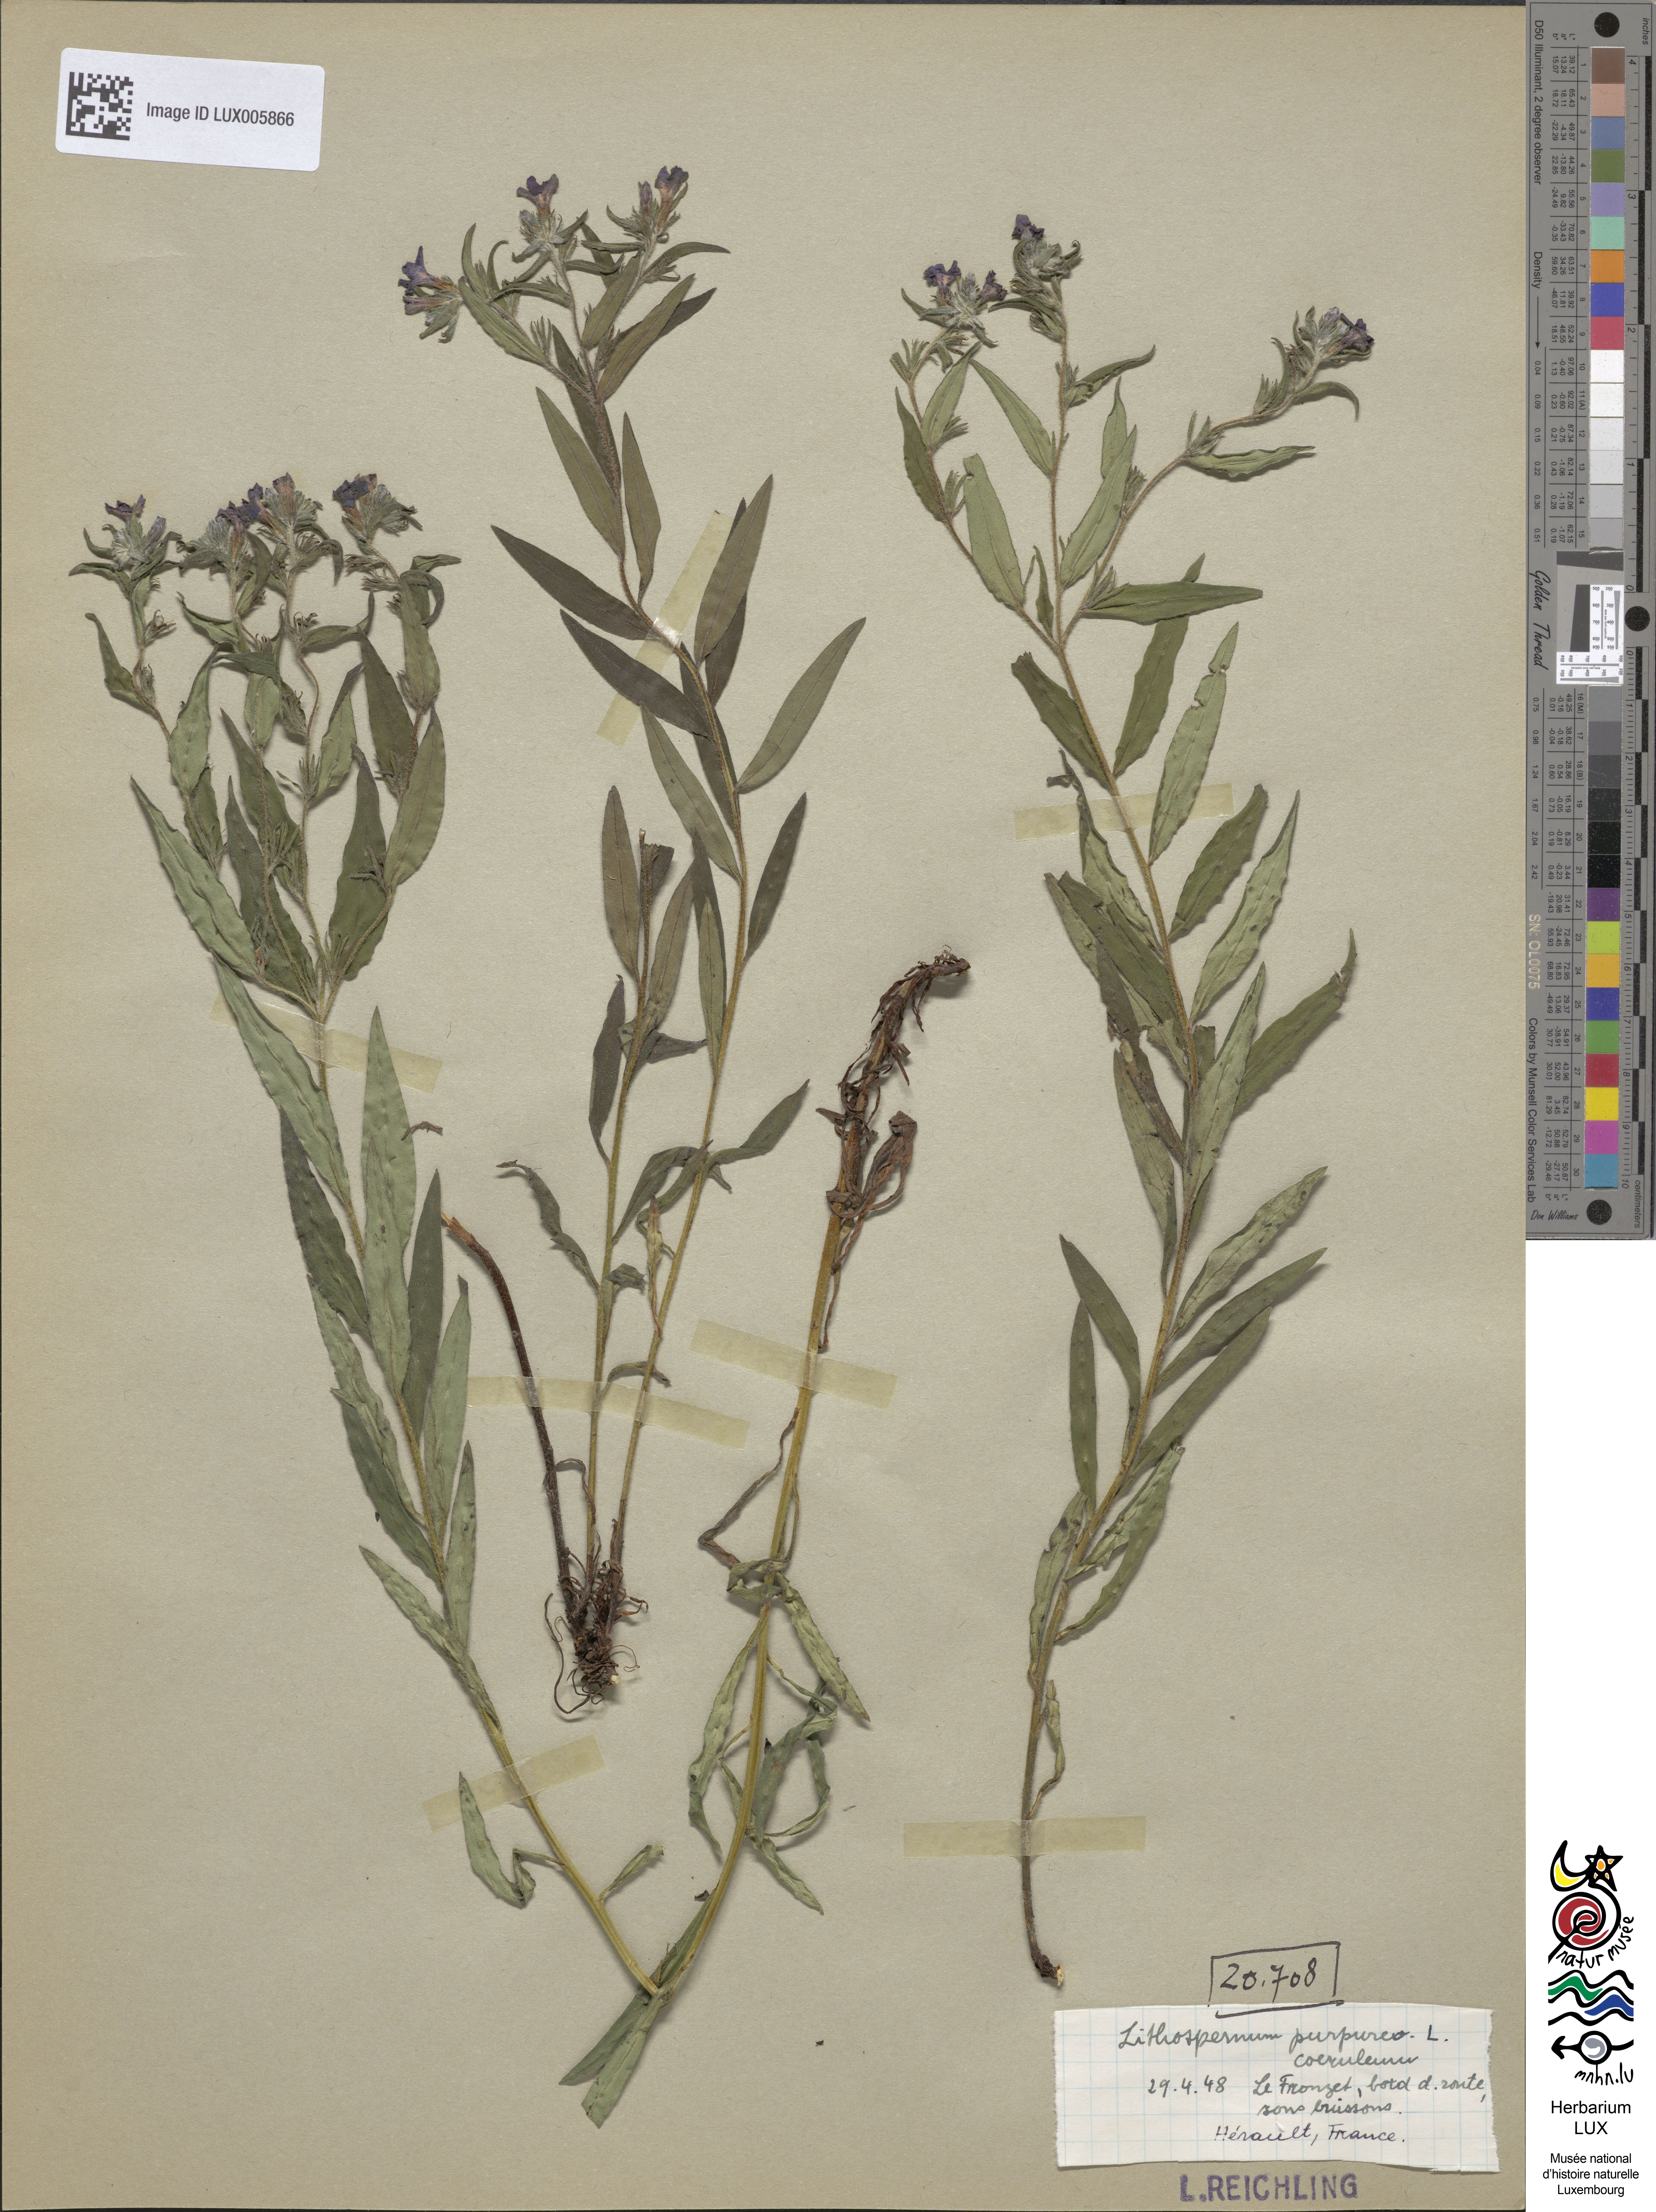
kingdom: Plantae
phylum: Tracheophyta
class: Magnoliopsida
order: Boraginales
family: Boraginaceae
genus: Aegonychon
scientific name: Aegonychon purpurocaeruleum
